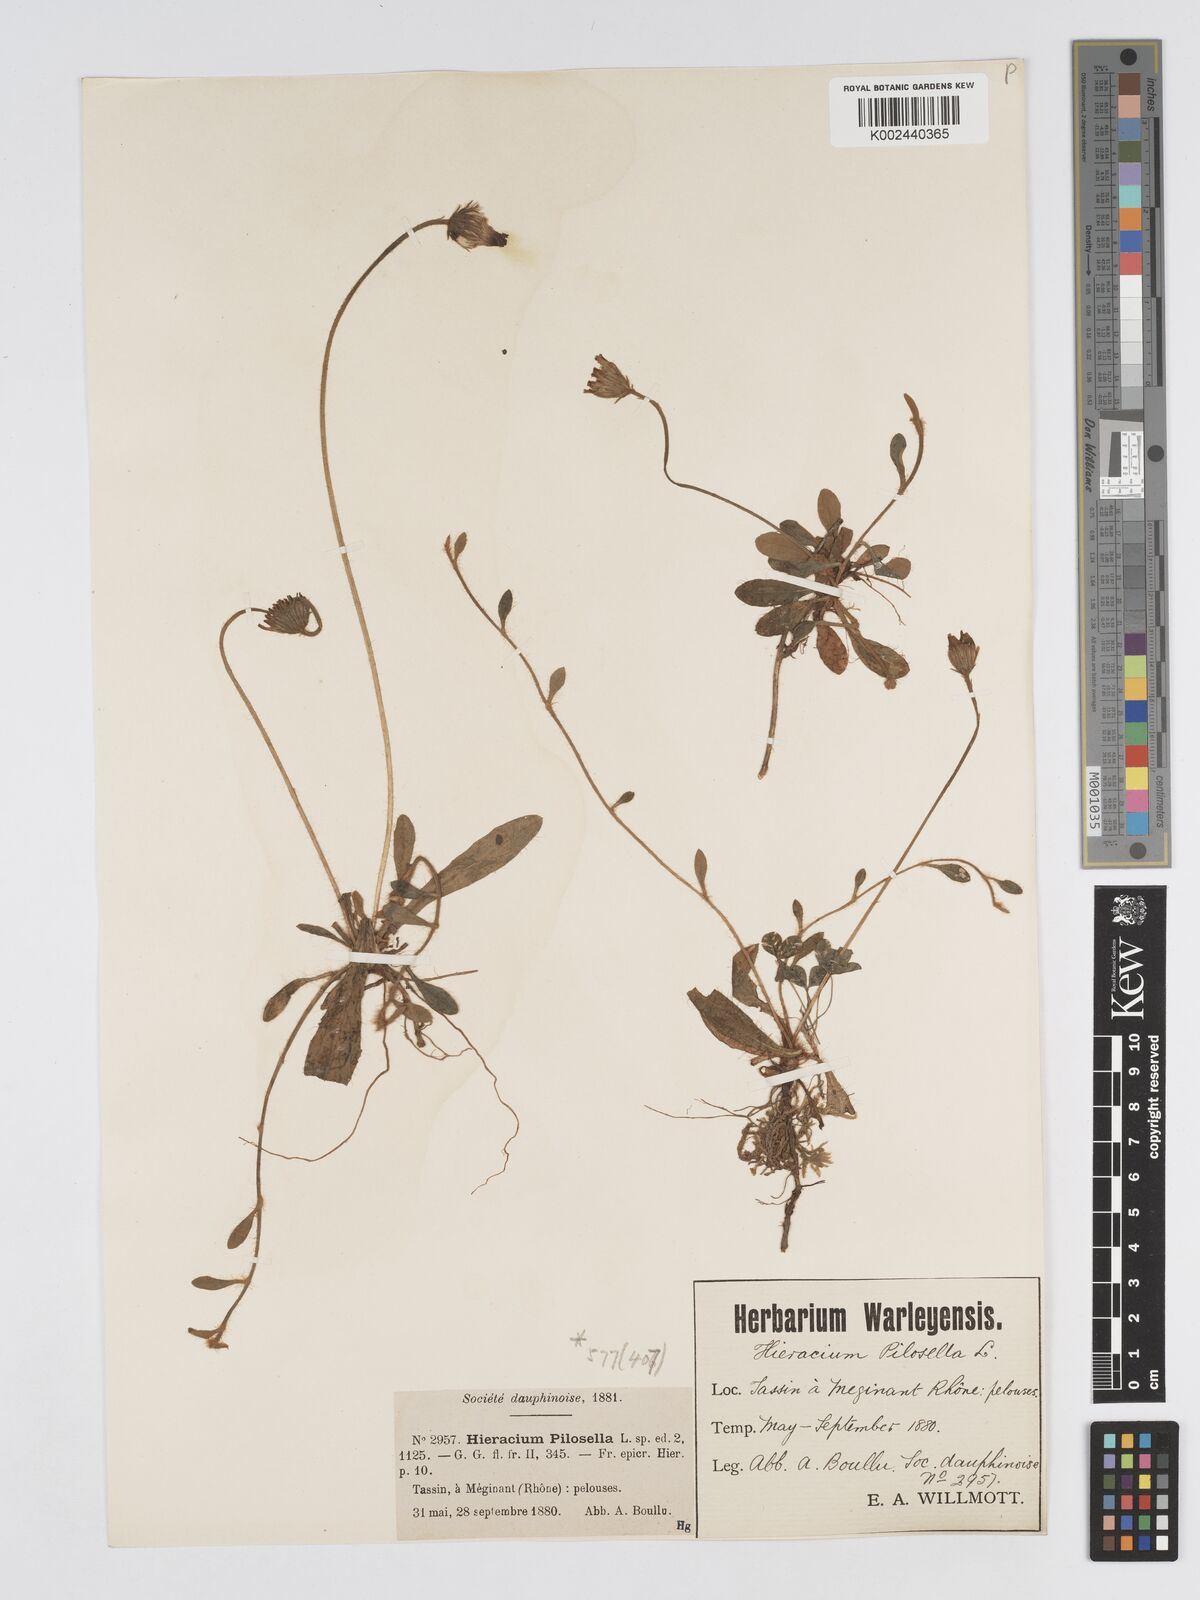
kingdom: Plantae
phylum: Tracheophyta
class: Magnoliopsida
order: Asterales
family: Asteraceae
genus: Pilosella
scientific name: Pilosella officinarum
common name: Mouse-ear hawkweed
